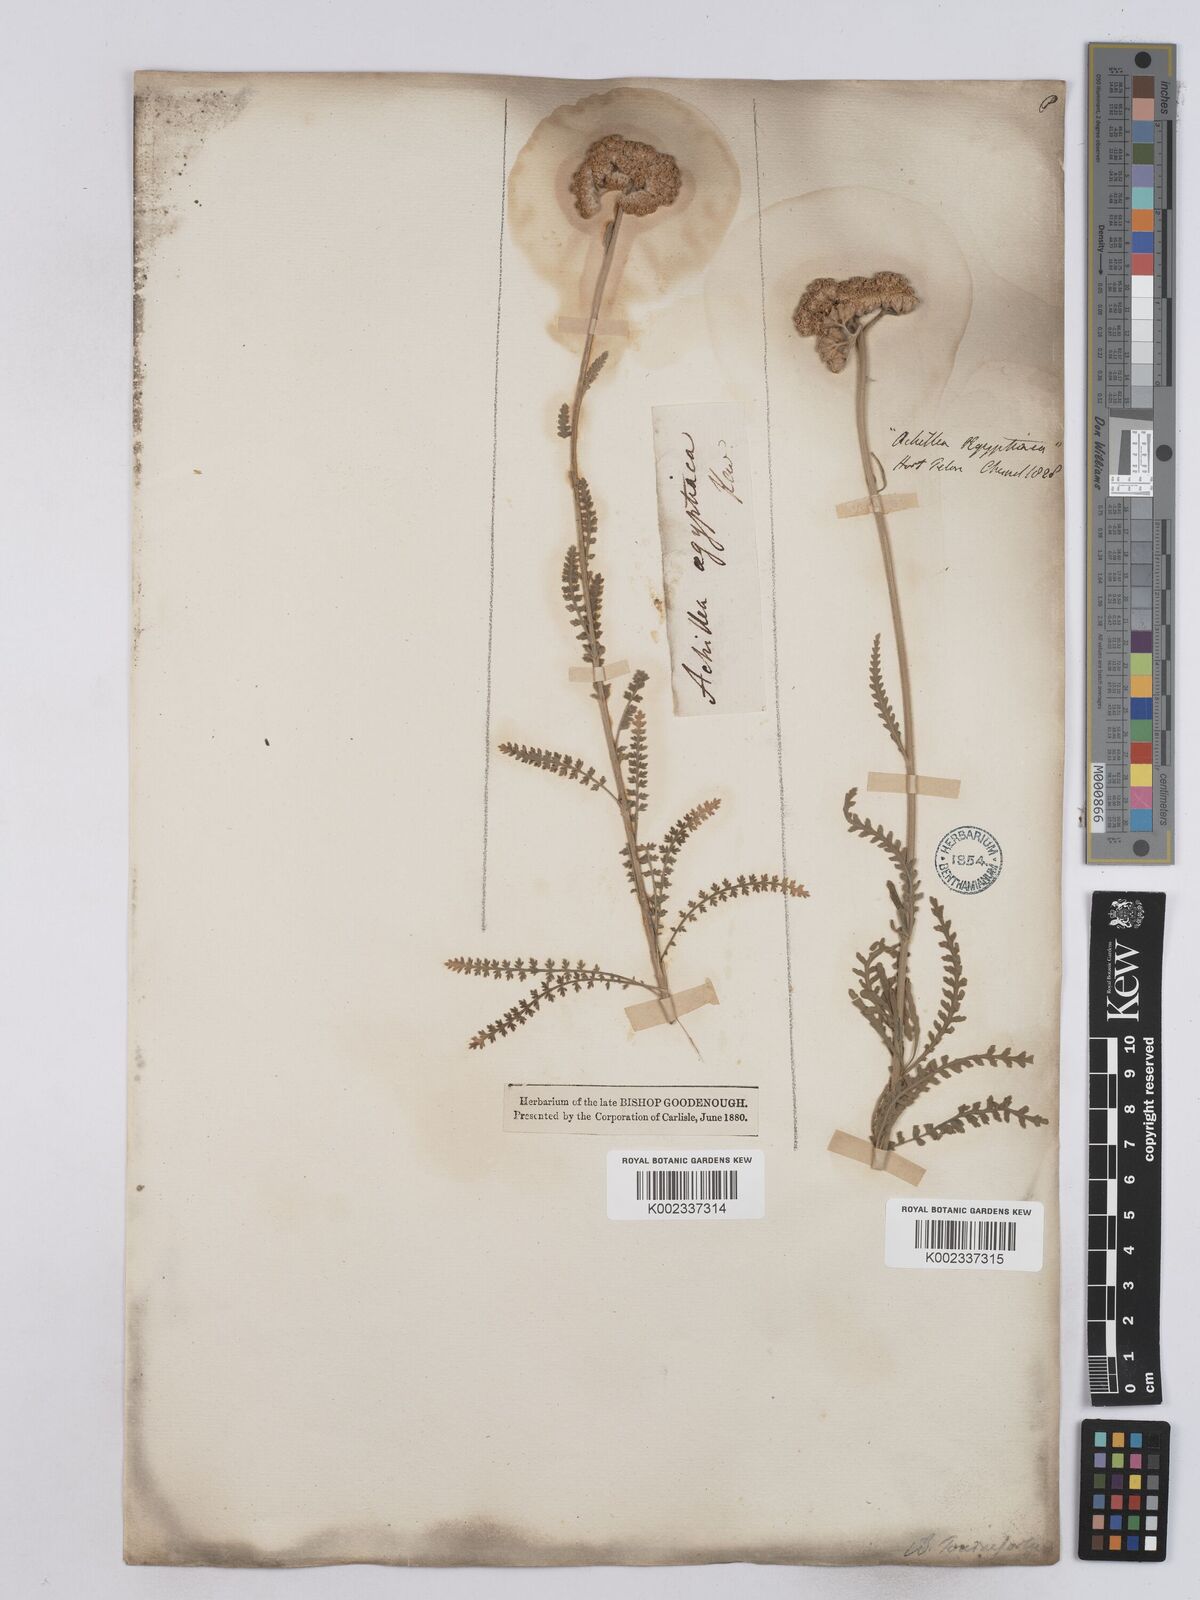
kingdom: Plantae
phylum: Tracheophyta
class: Magnoliopsida
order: Asterales
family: Asteraceae
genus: Achillea
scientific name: Achillea aegyptiaca
